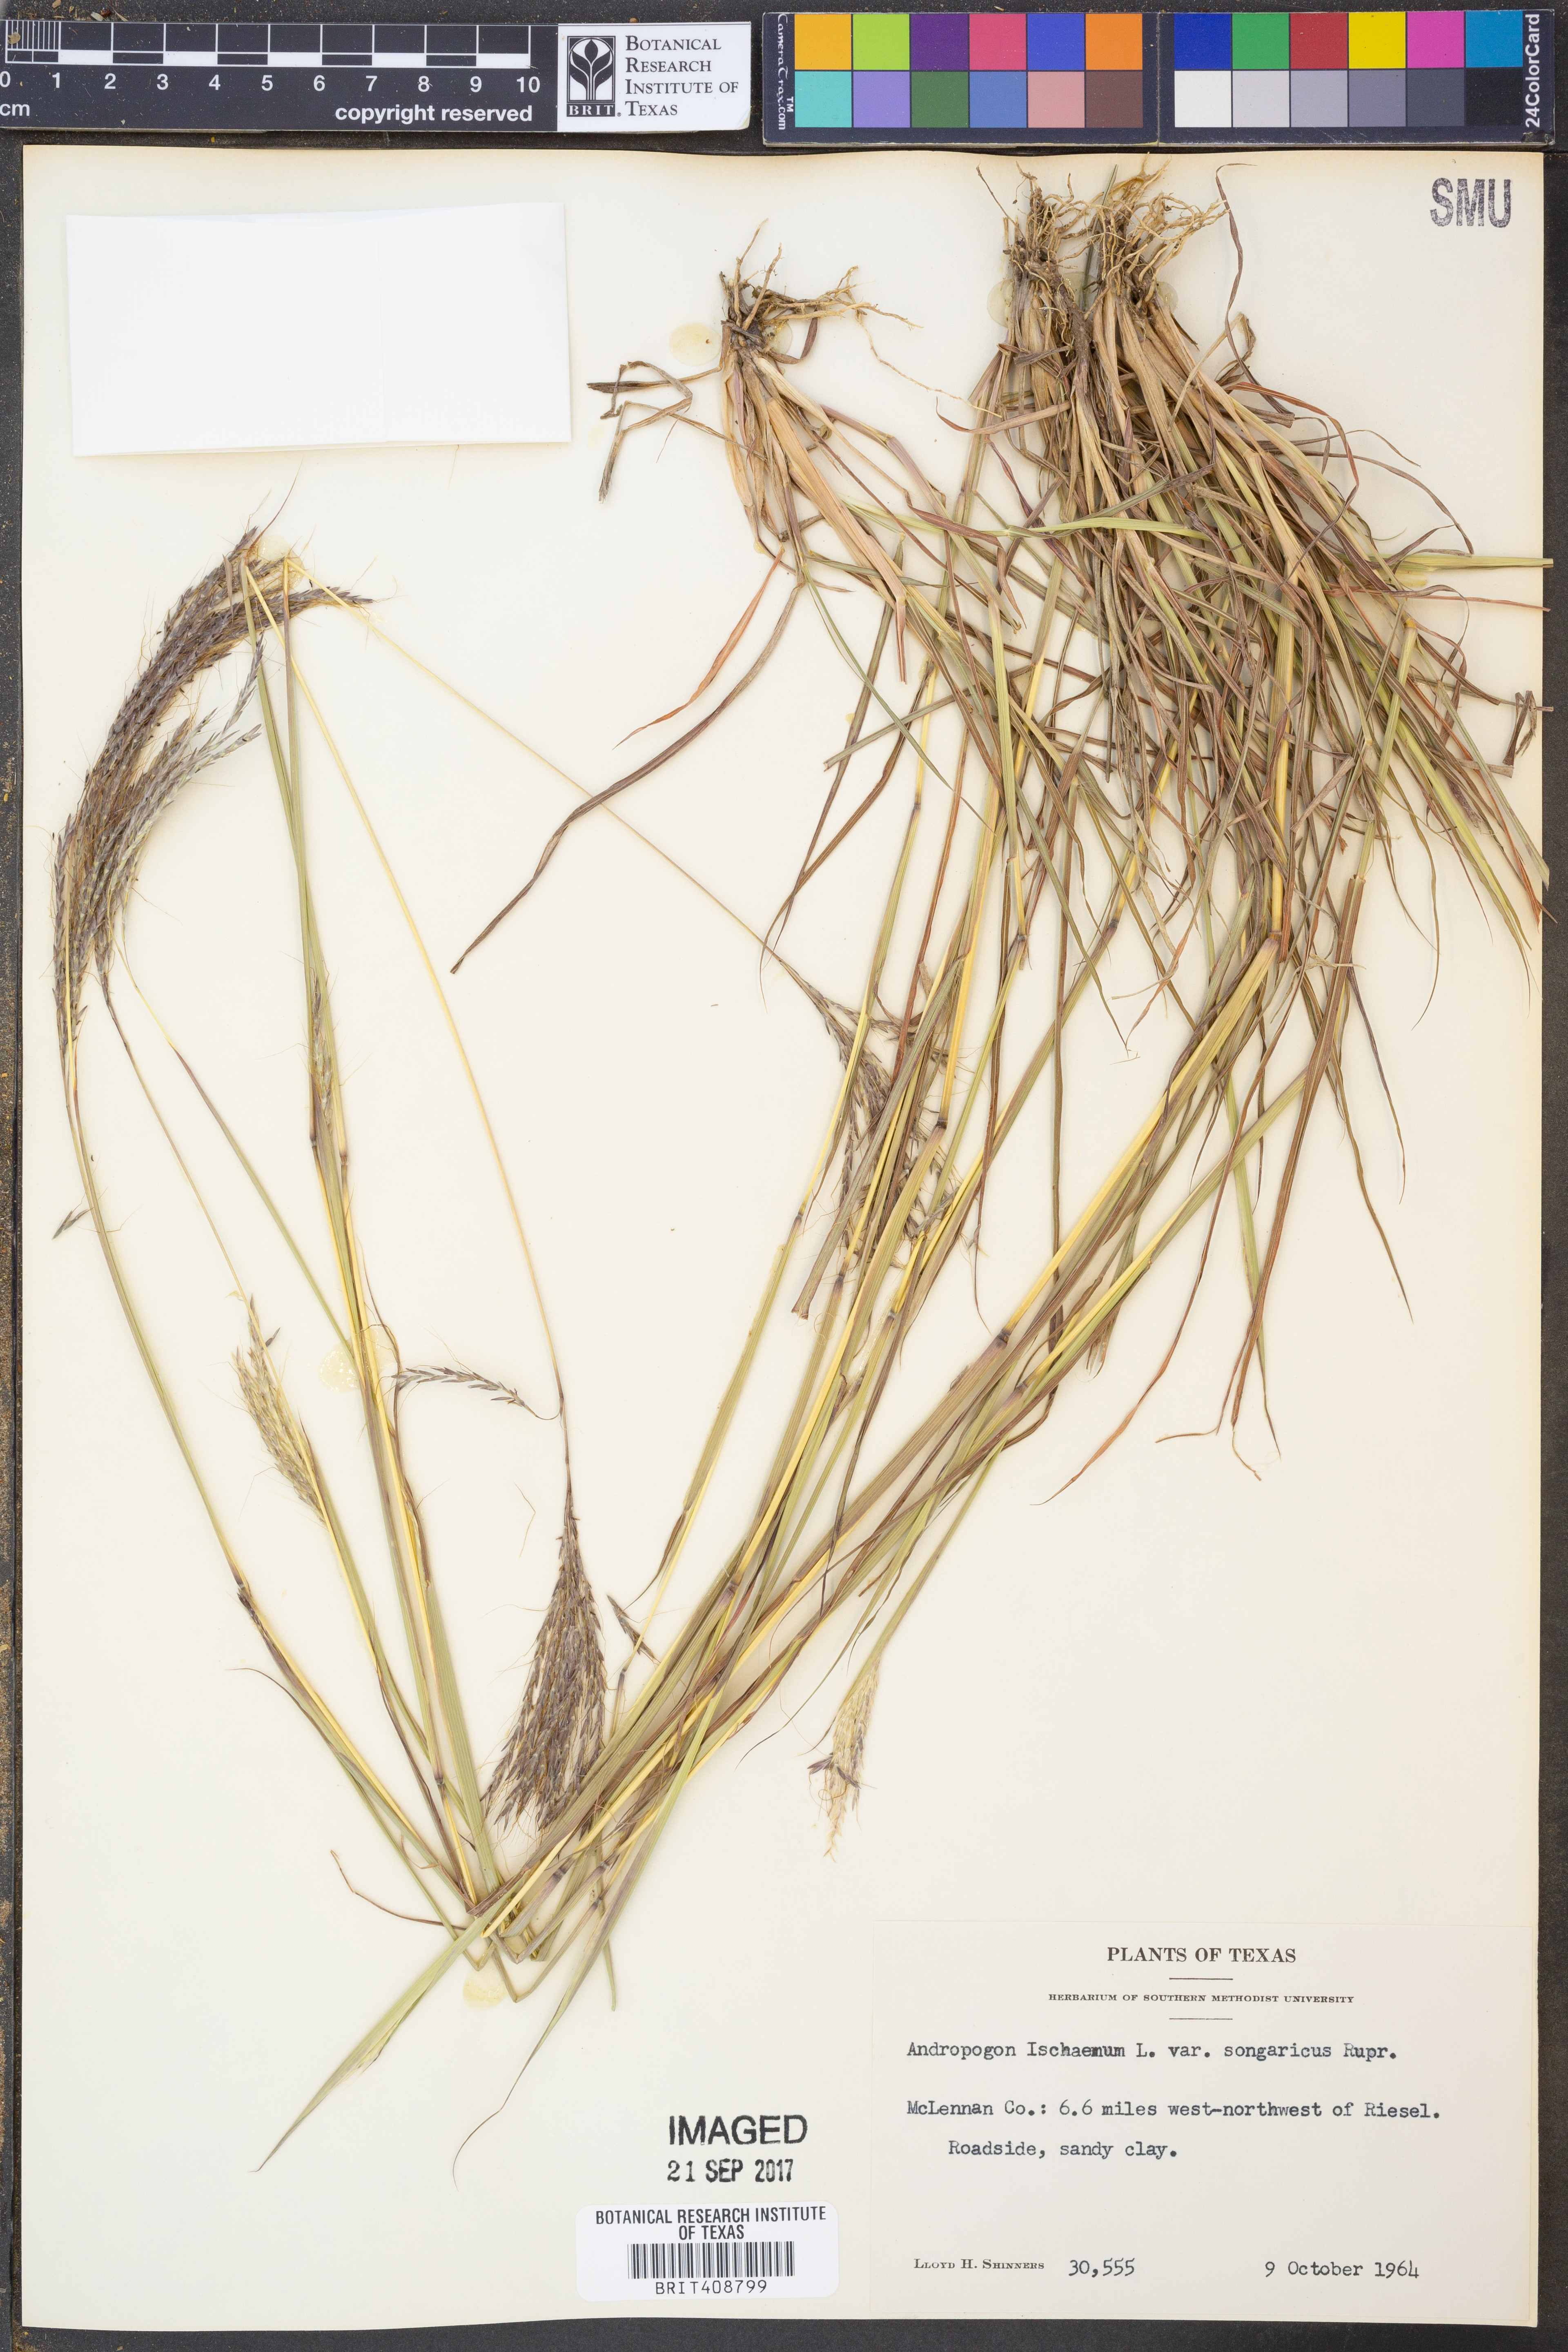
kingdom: Plantae
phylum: Tracheophyta
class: Liliopsida
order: Poales
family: Poaceae
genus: Bothriochloa
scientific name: Bothriochloa ischaemum
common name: Yellow bluestem
